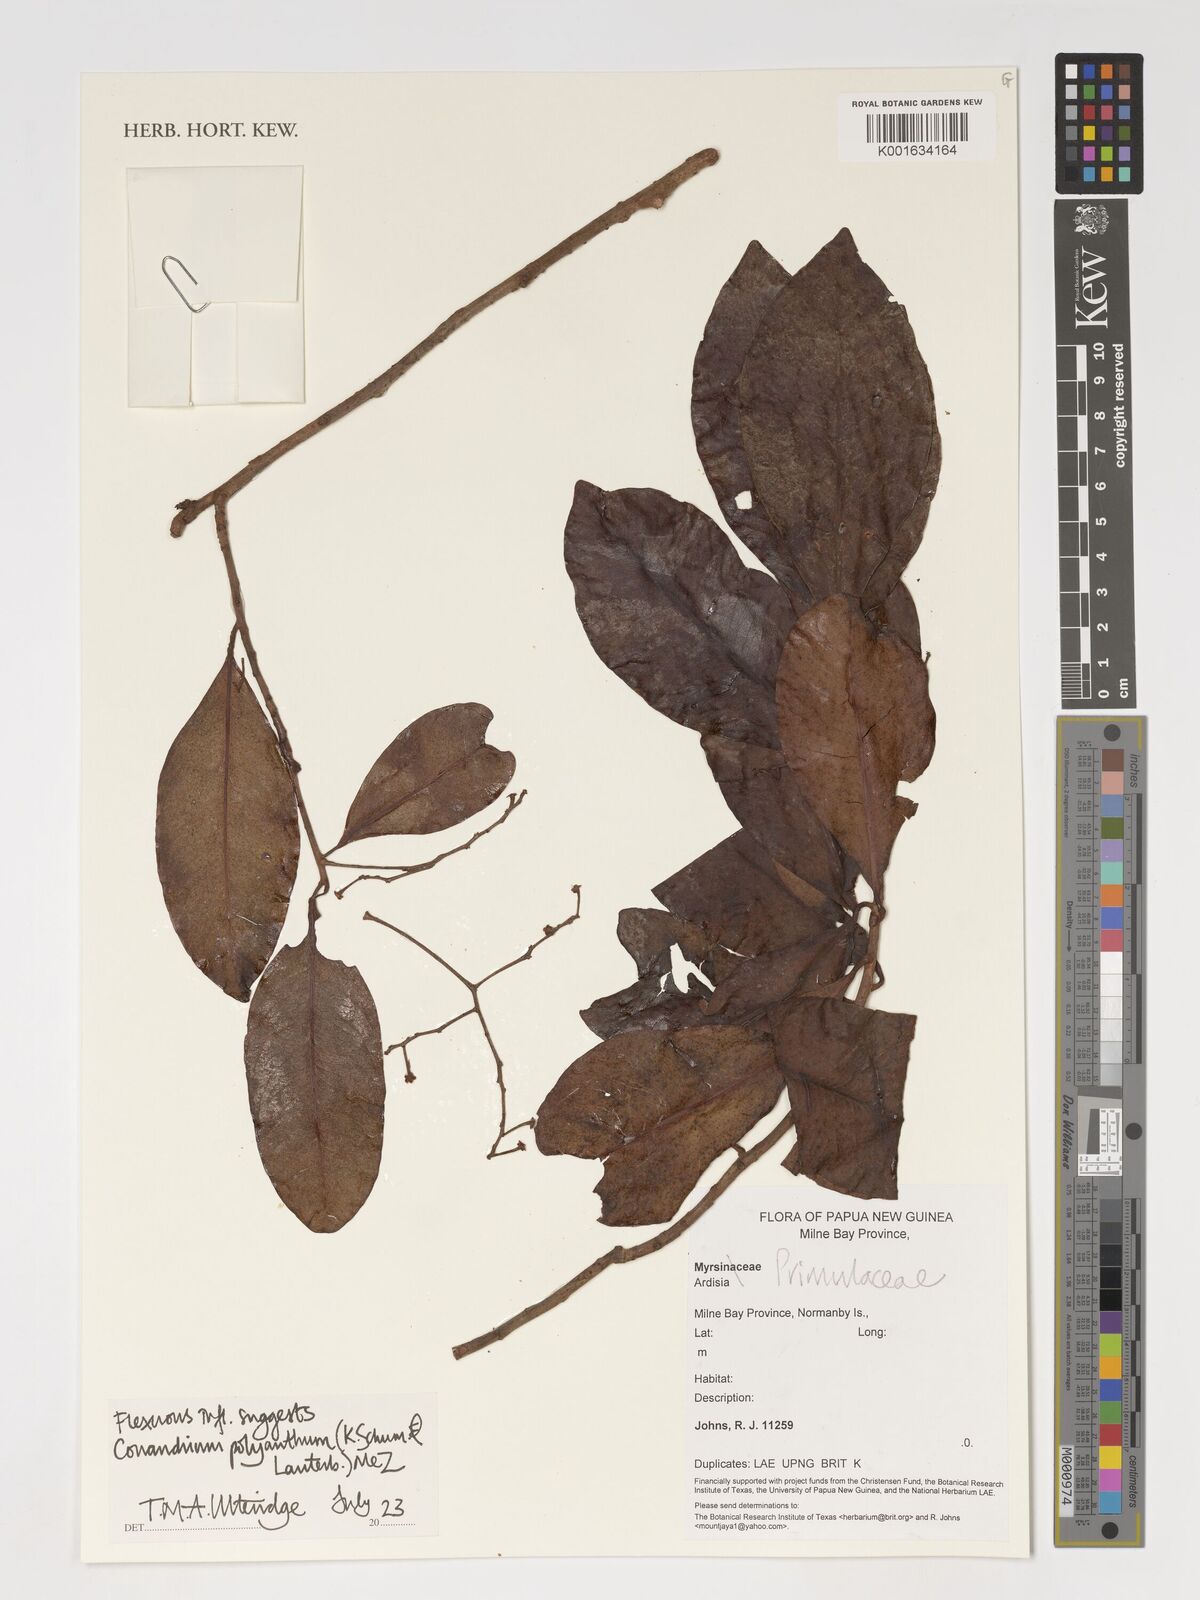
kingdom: Plantae
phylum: Tracheophyta
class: Magnoliopsida
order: Ericales
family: Primulaceae
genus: Conandrium
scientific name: Conandrium polyanthum
